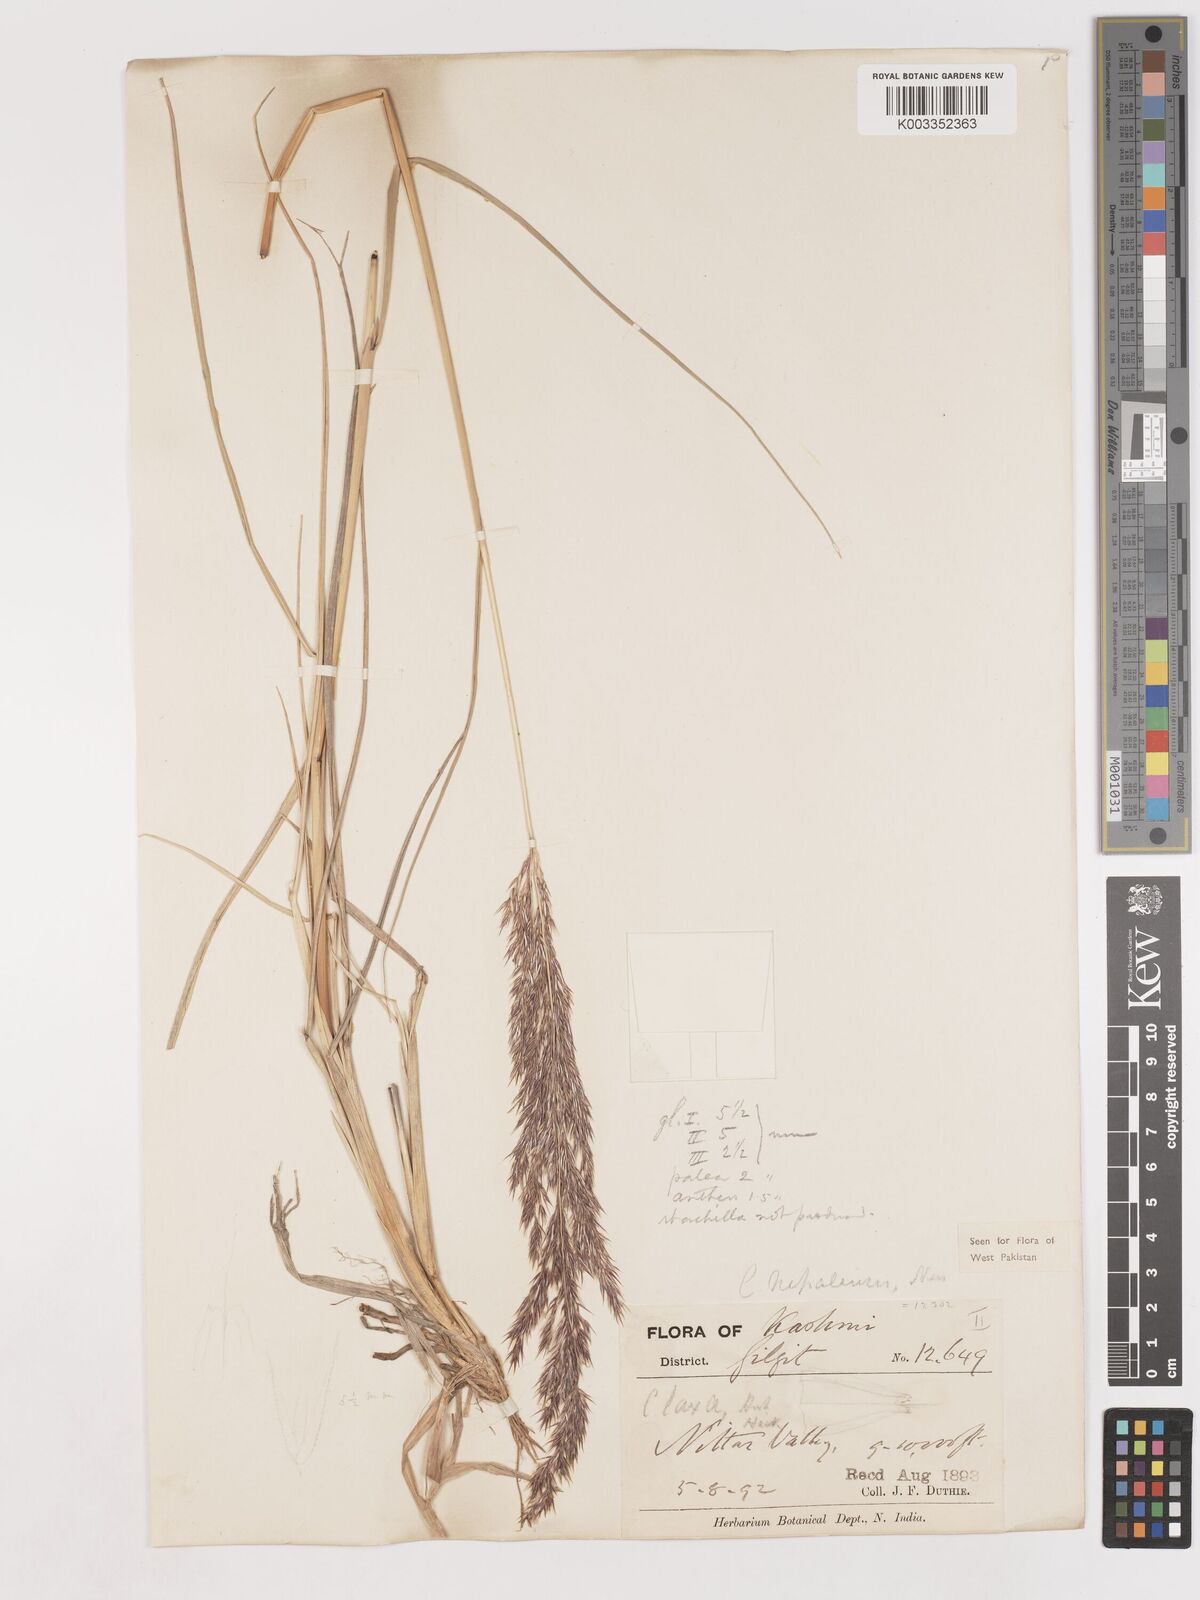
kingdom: Plantae
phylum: Tracheophyta
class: Liliopsida
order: Poales
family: Poaceae
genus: Calamagrostis
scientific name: Calamagrostis pseudophragmites
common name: Coastal small-reed
